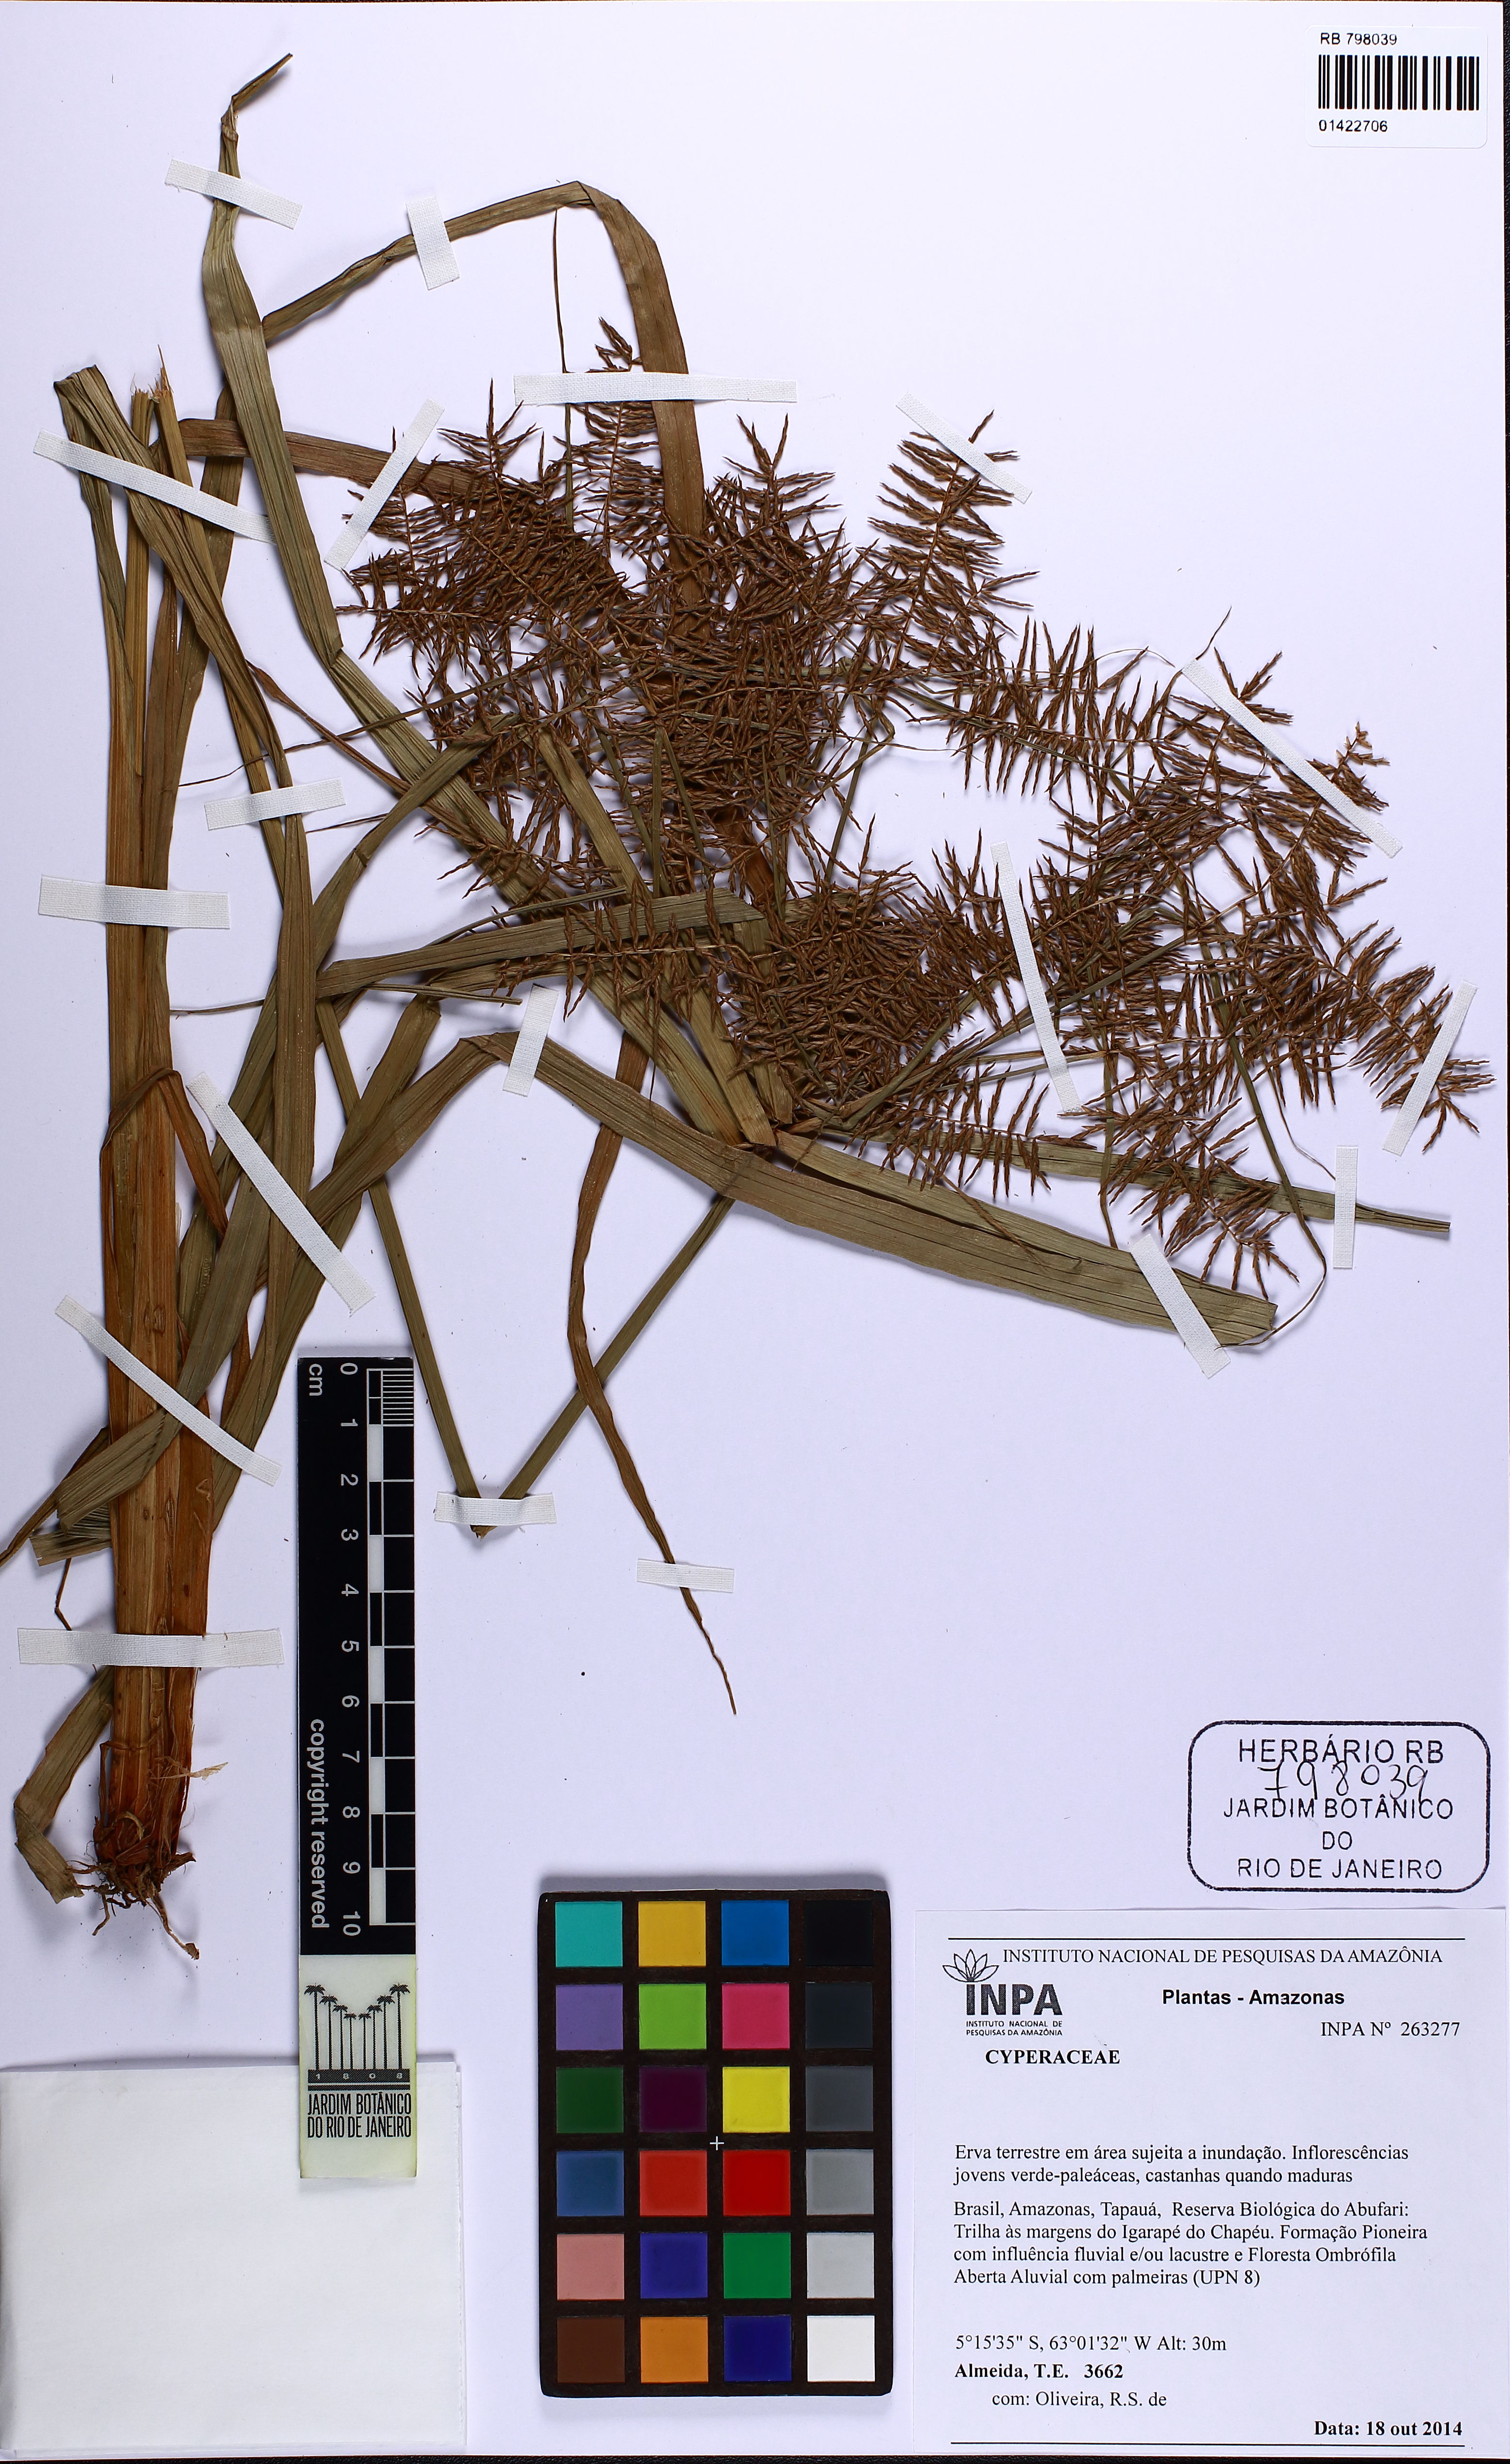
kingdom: Plantae
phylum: Tracheophyta
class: Liliopsida
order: Poales
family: Cyperaceae
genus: Cyperus
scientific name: Cyperus distans
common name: Slender cyperus
